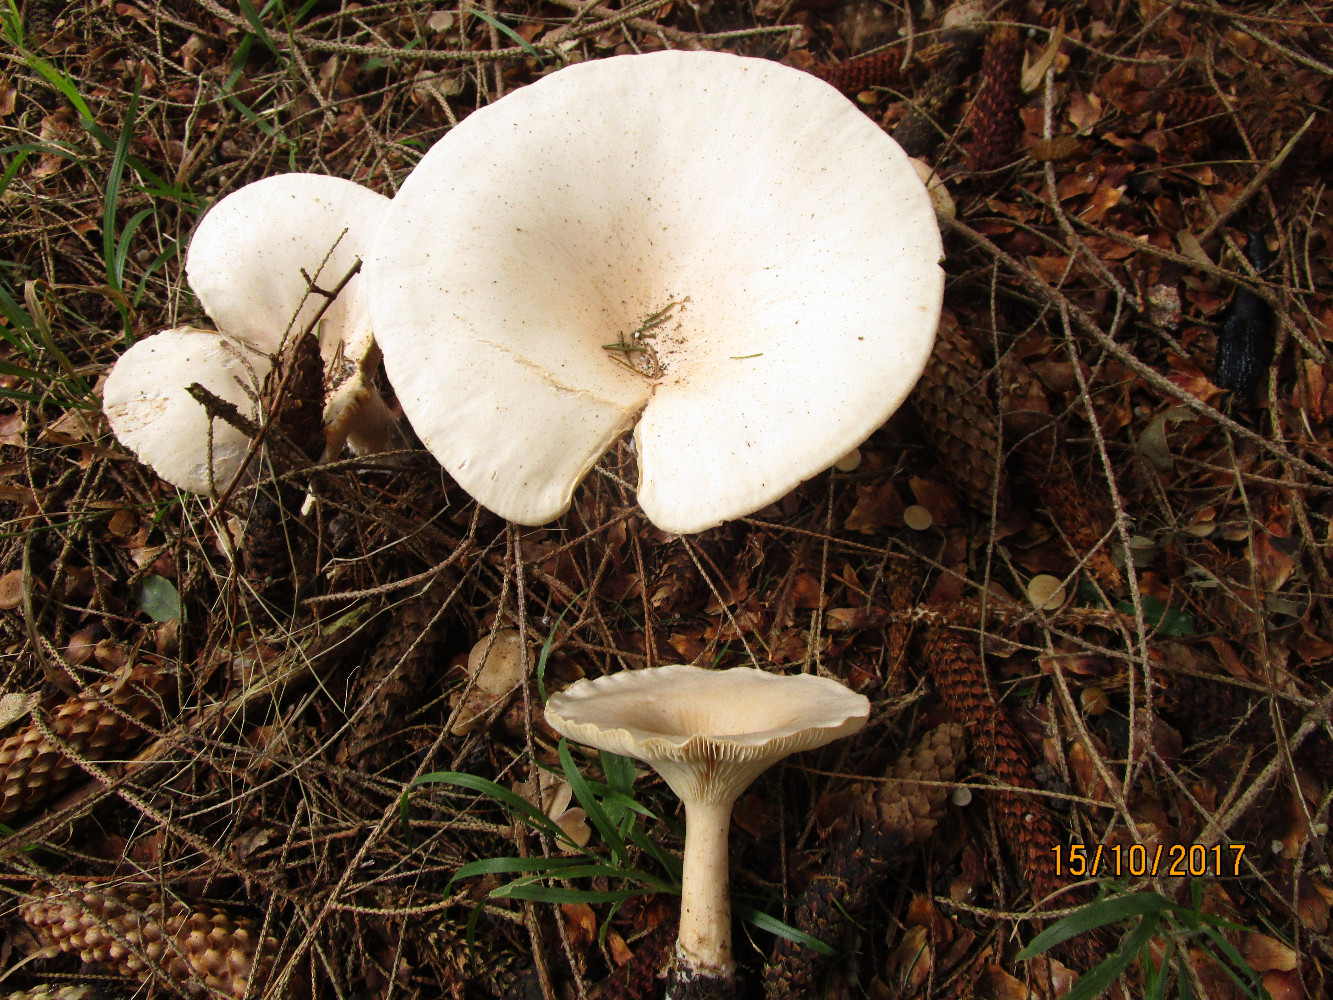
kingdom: Fungi
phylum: Basidiomycota
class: Agaricomycetes
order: Agaricales
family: Tricholomataceae
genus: Infundibulicybe
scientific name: Infundibulicybe geotropa
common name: stor tragthat
